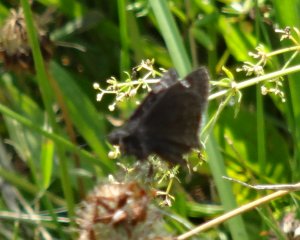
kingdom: Animalia
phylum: Arthropoda
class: Insecta
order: Lepidoptera
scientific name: Lepidoptera
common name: Butterflies
